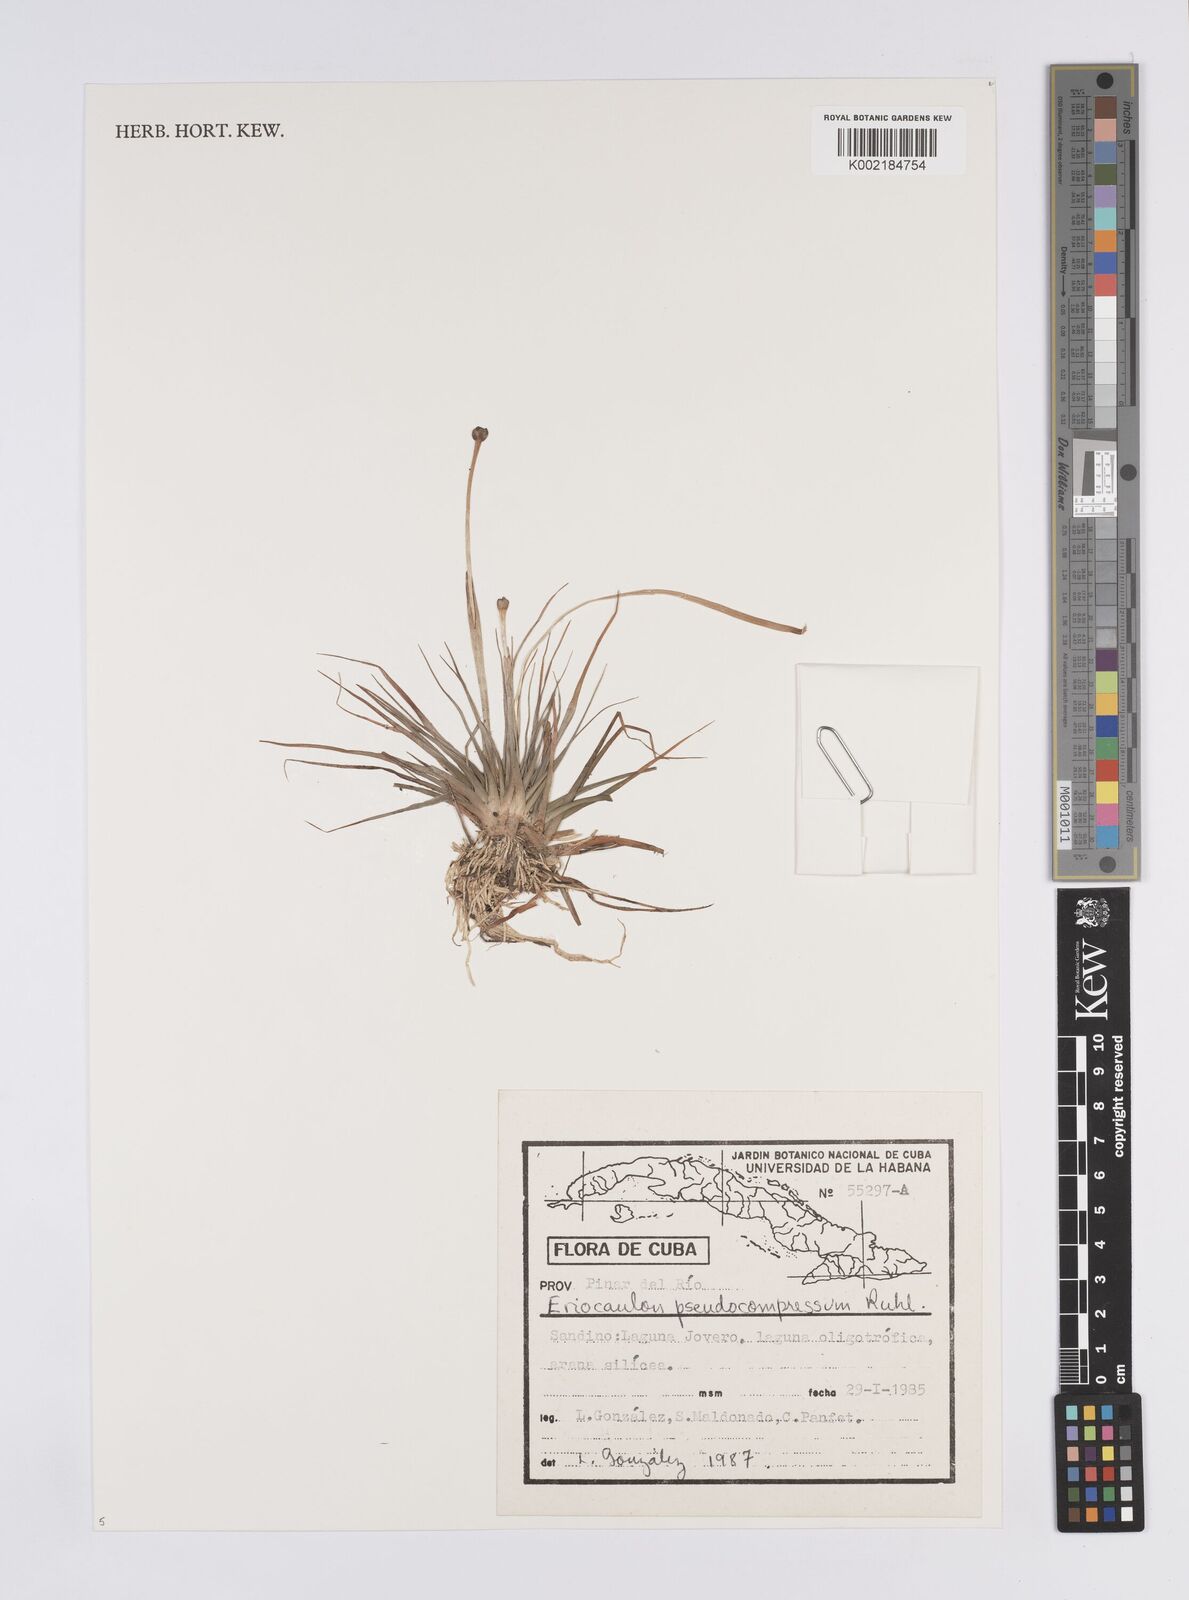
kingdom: Plantae
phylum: Tracheophyta
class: Liliopsida
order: Poales
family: Eriocaulaceae
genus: Eriocaulon
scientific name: Eriocaulon cubense
